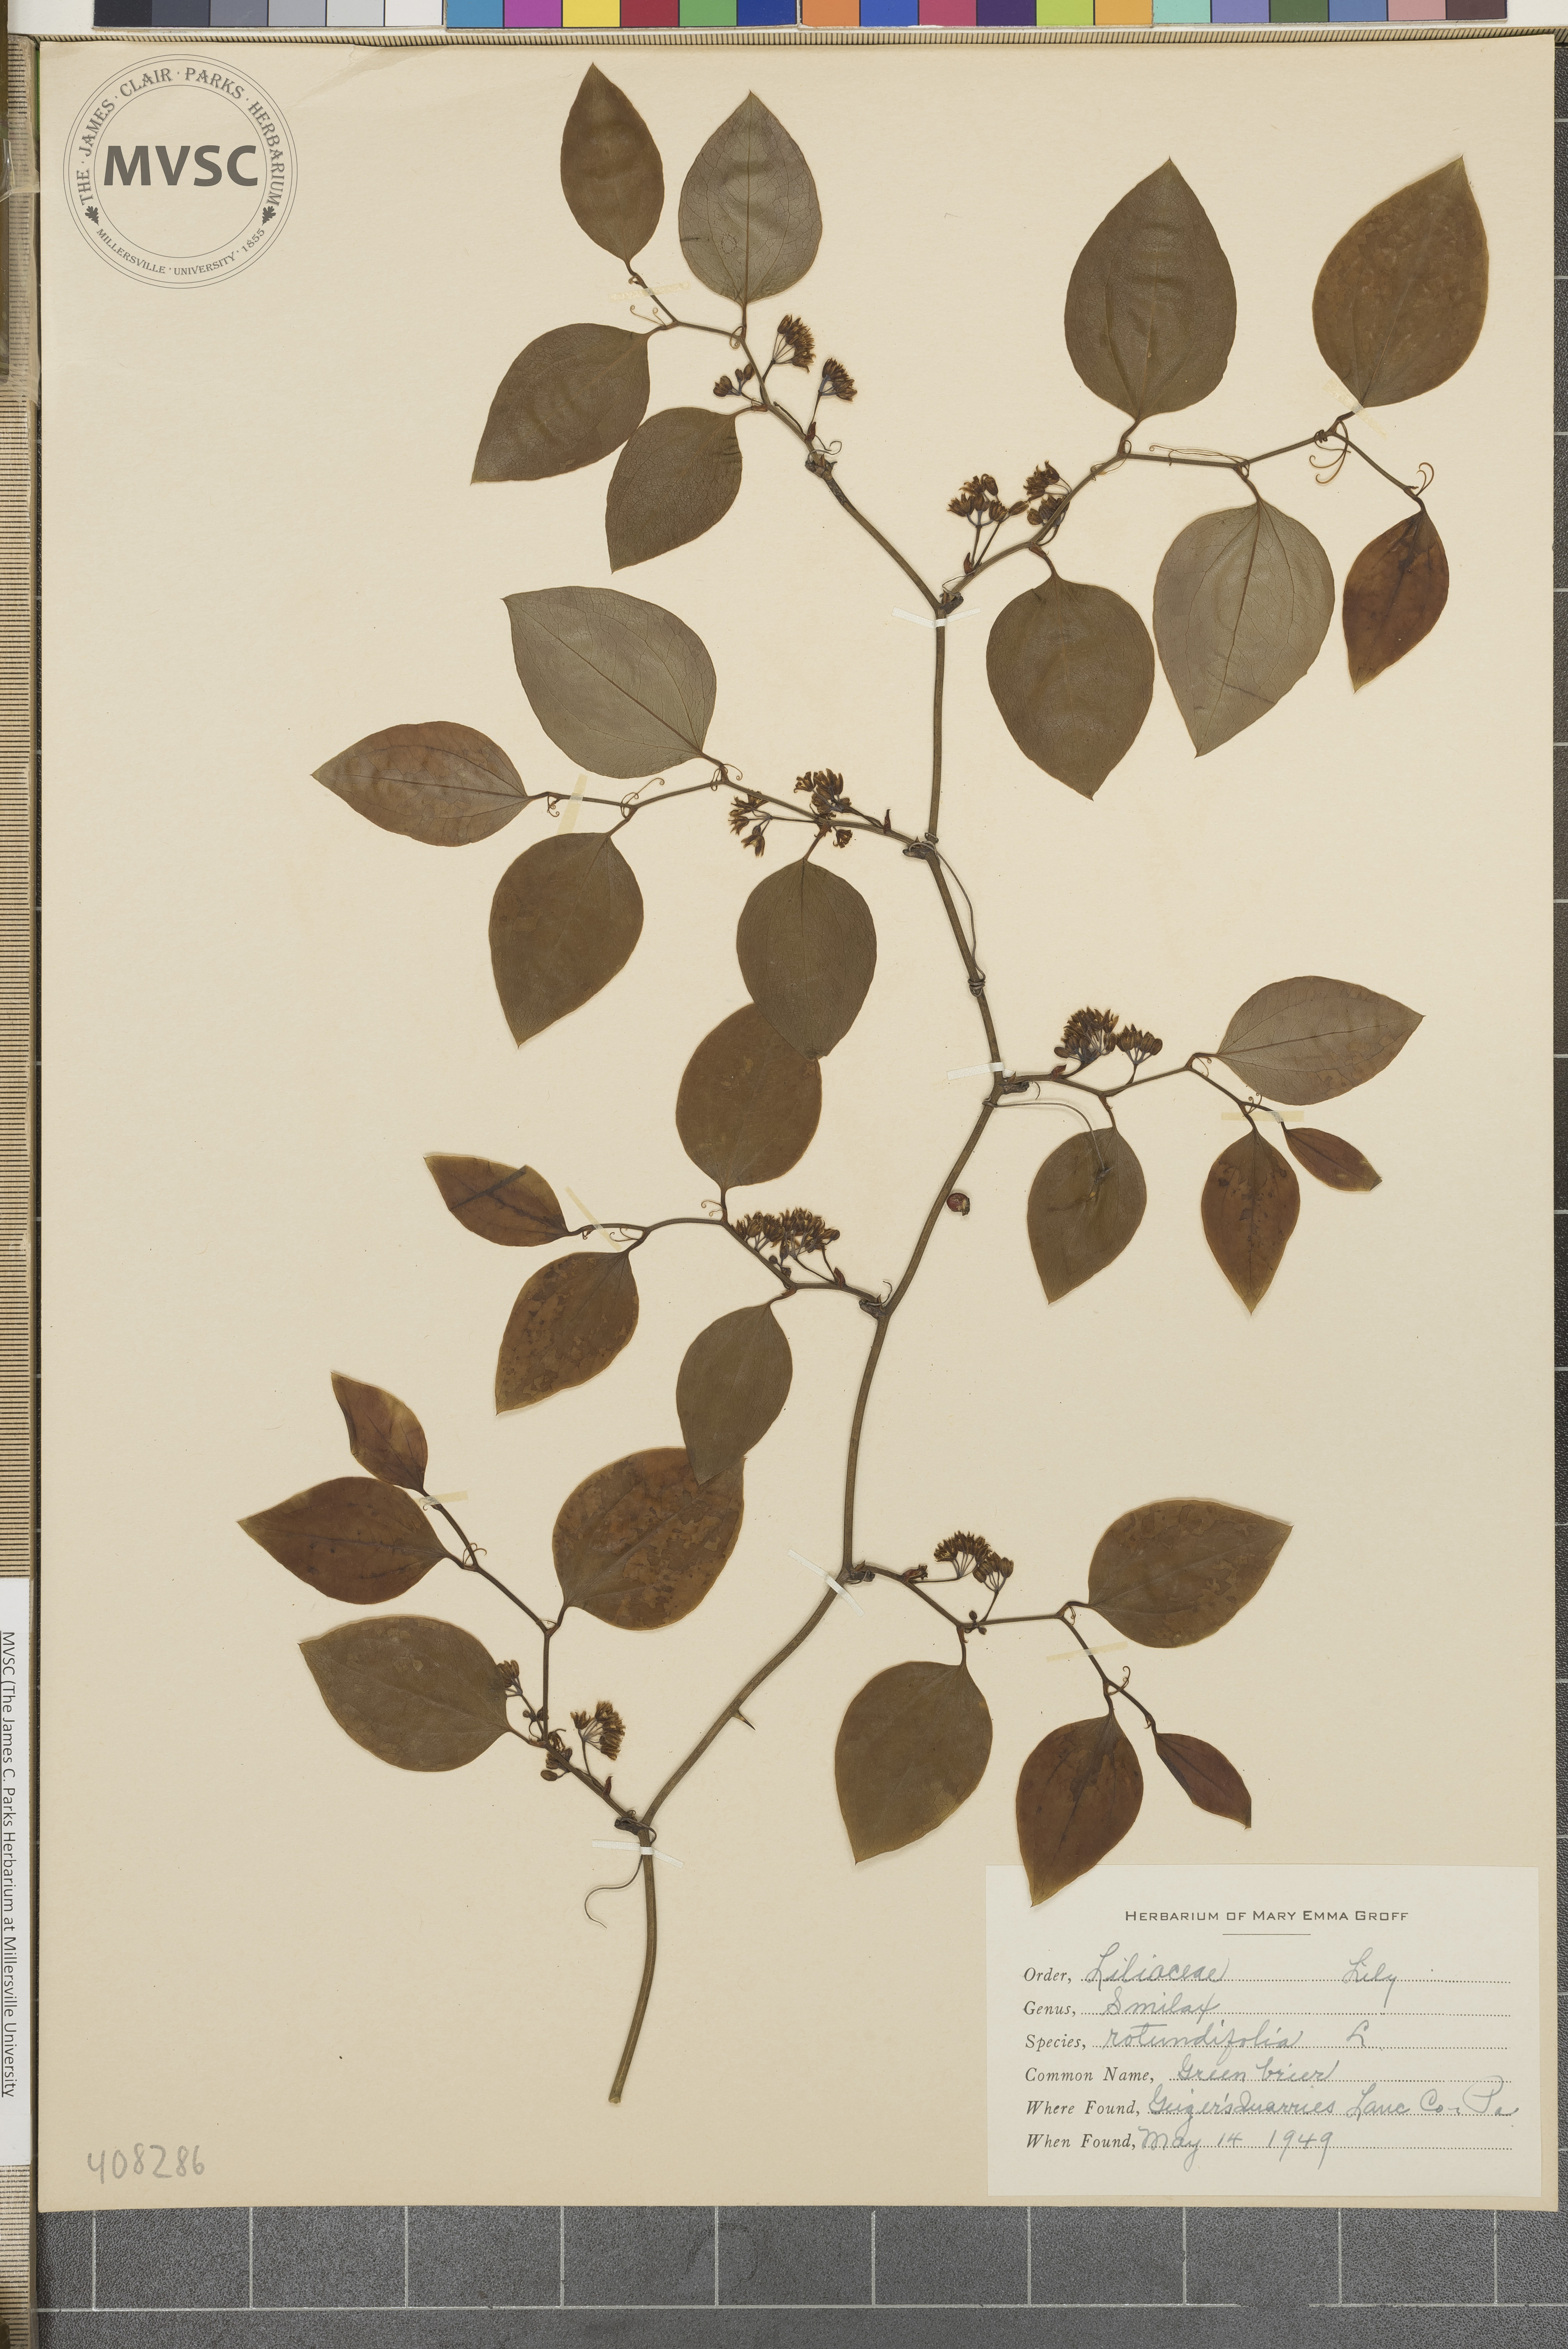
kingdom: Plantae
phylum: Tracheophyta
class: Liliopsida
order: Liliales
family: Smilacaceae
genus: Smilax
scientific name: Smilax rotundifolia
